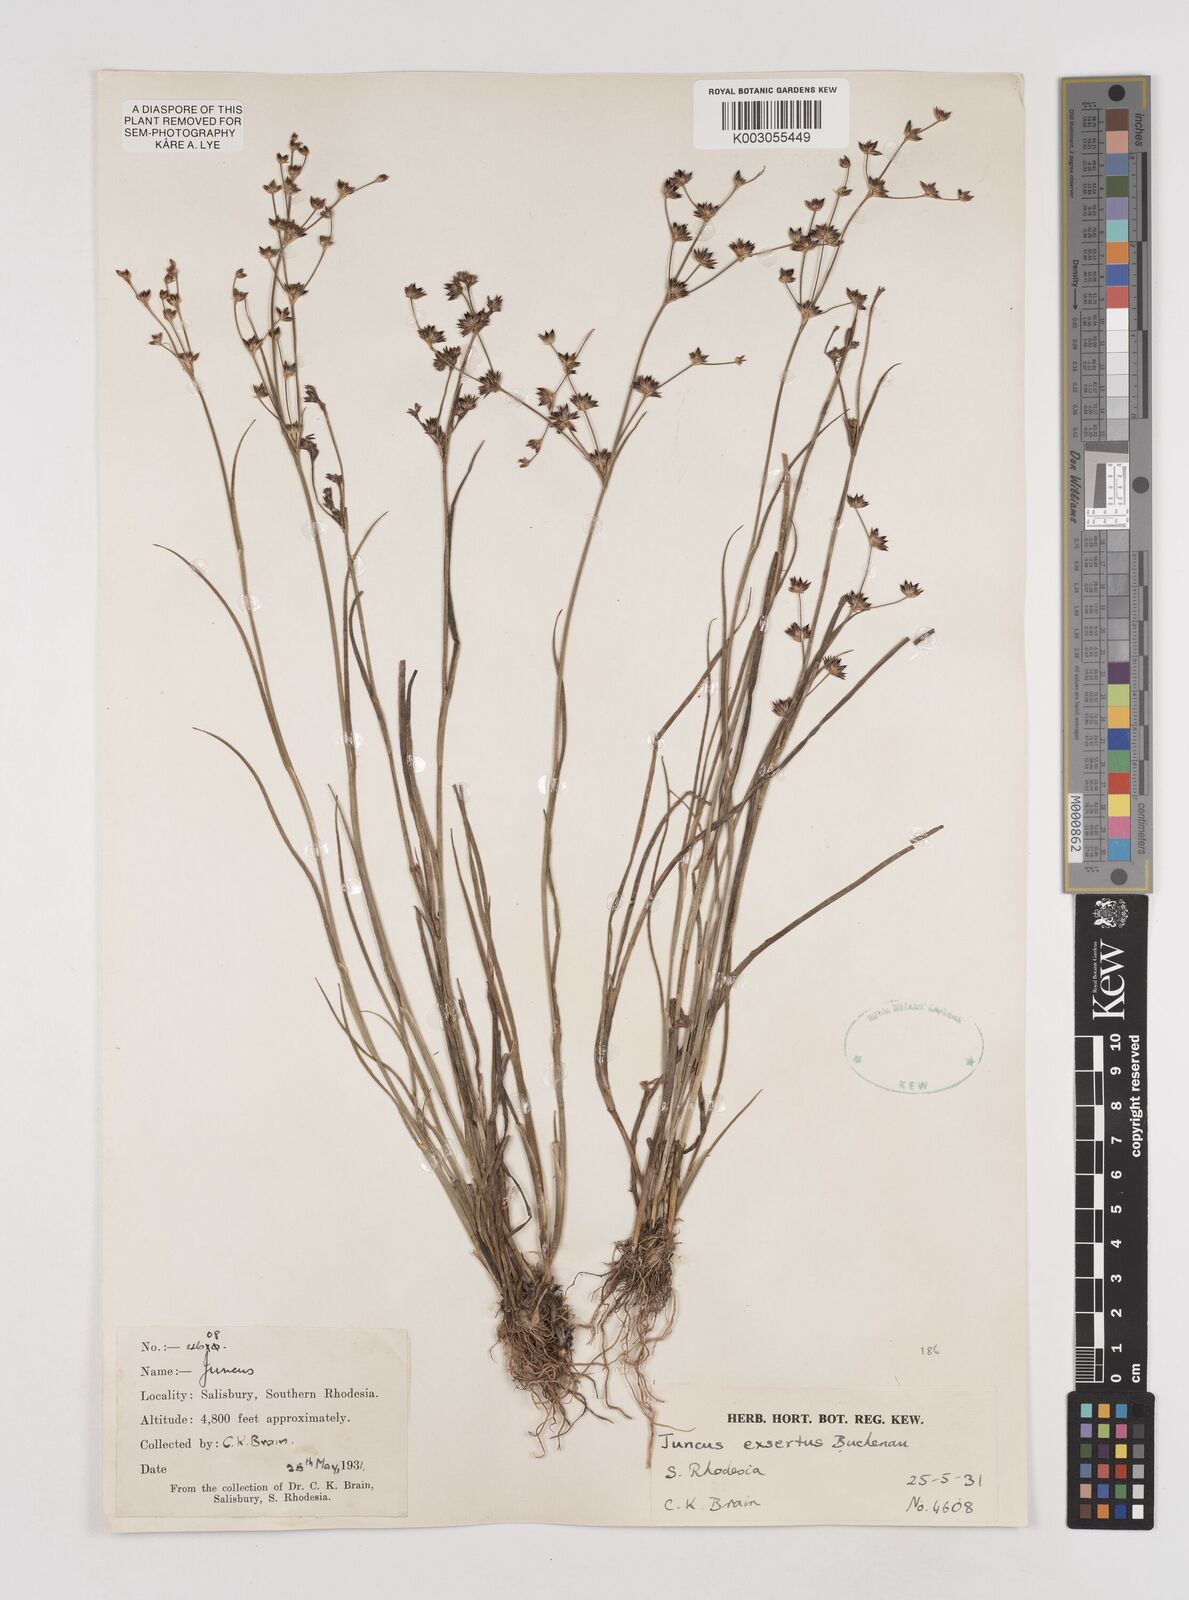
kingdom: Plantae
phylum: Tracheophyta
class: Liliopsida
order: Poales
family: Juncaceae
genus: Juncus
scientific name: Juncus exsertus
